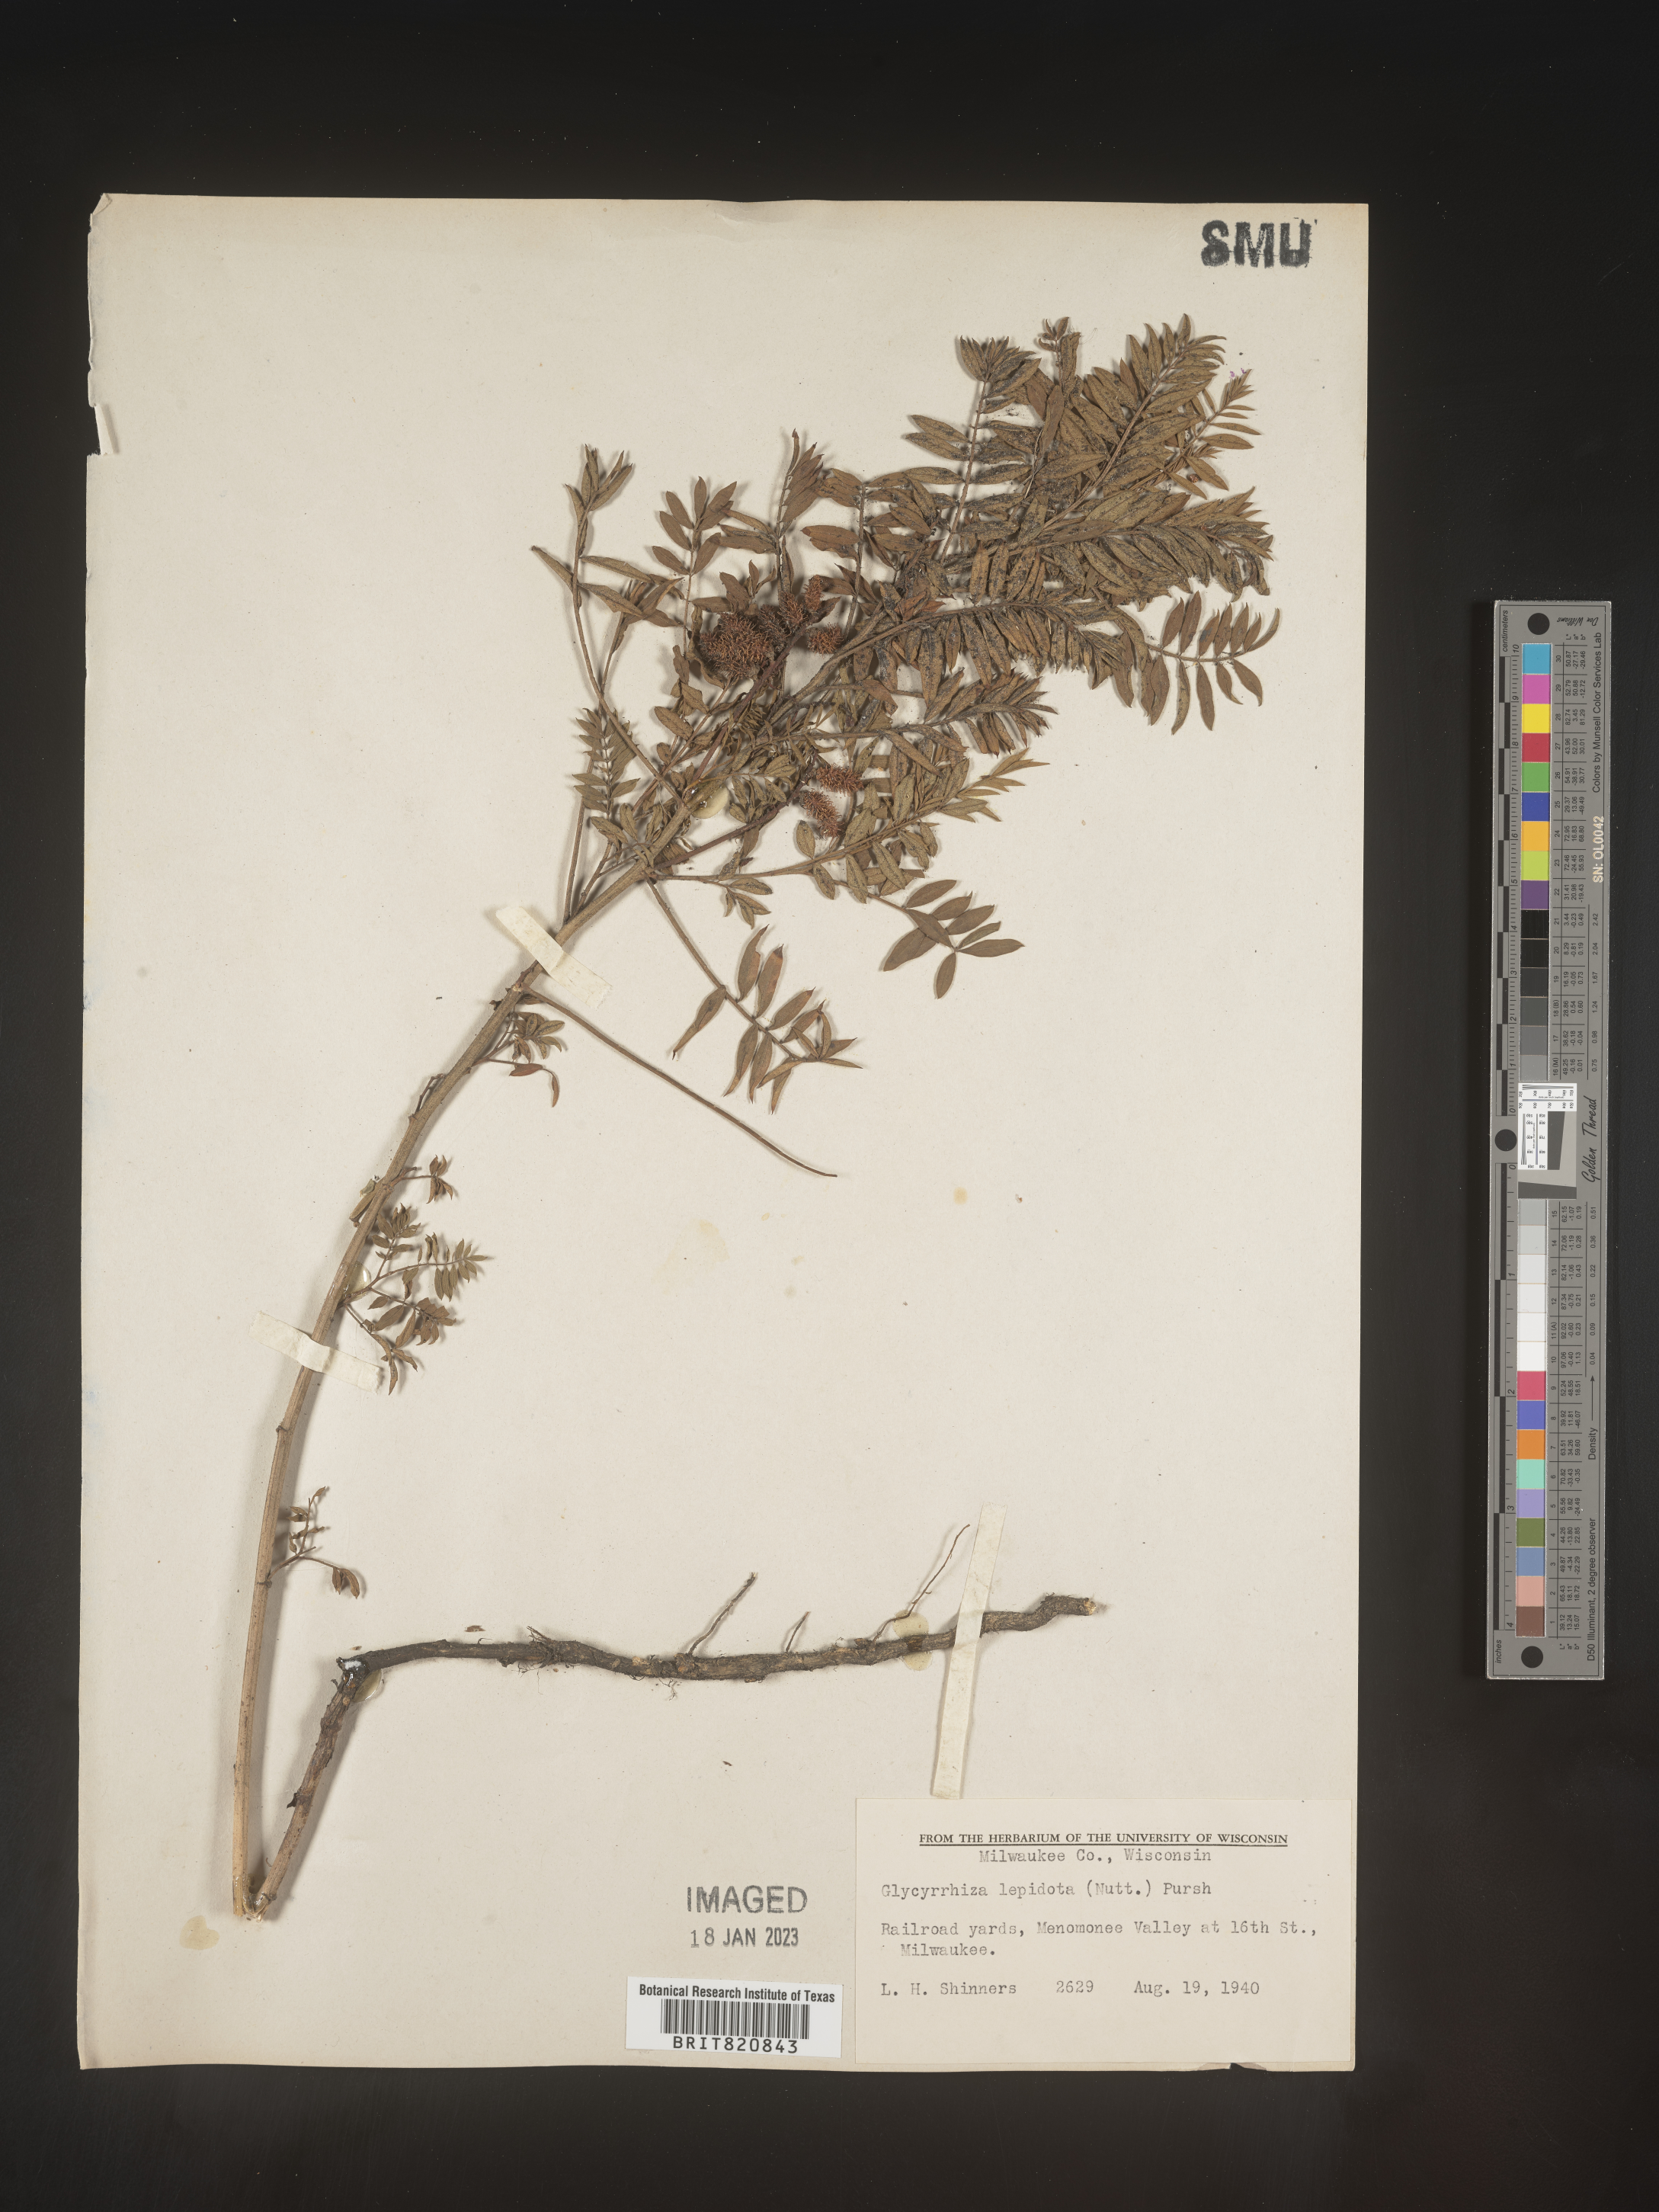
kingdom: Plantae
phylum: Tracheophyta
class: Magnoliopsida
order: Fabales
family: Fabaceae
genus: Glycyrrhiza
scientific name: Glycyrrhiza lepidota
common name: American liquorice
